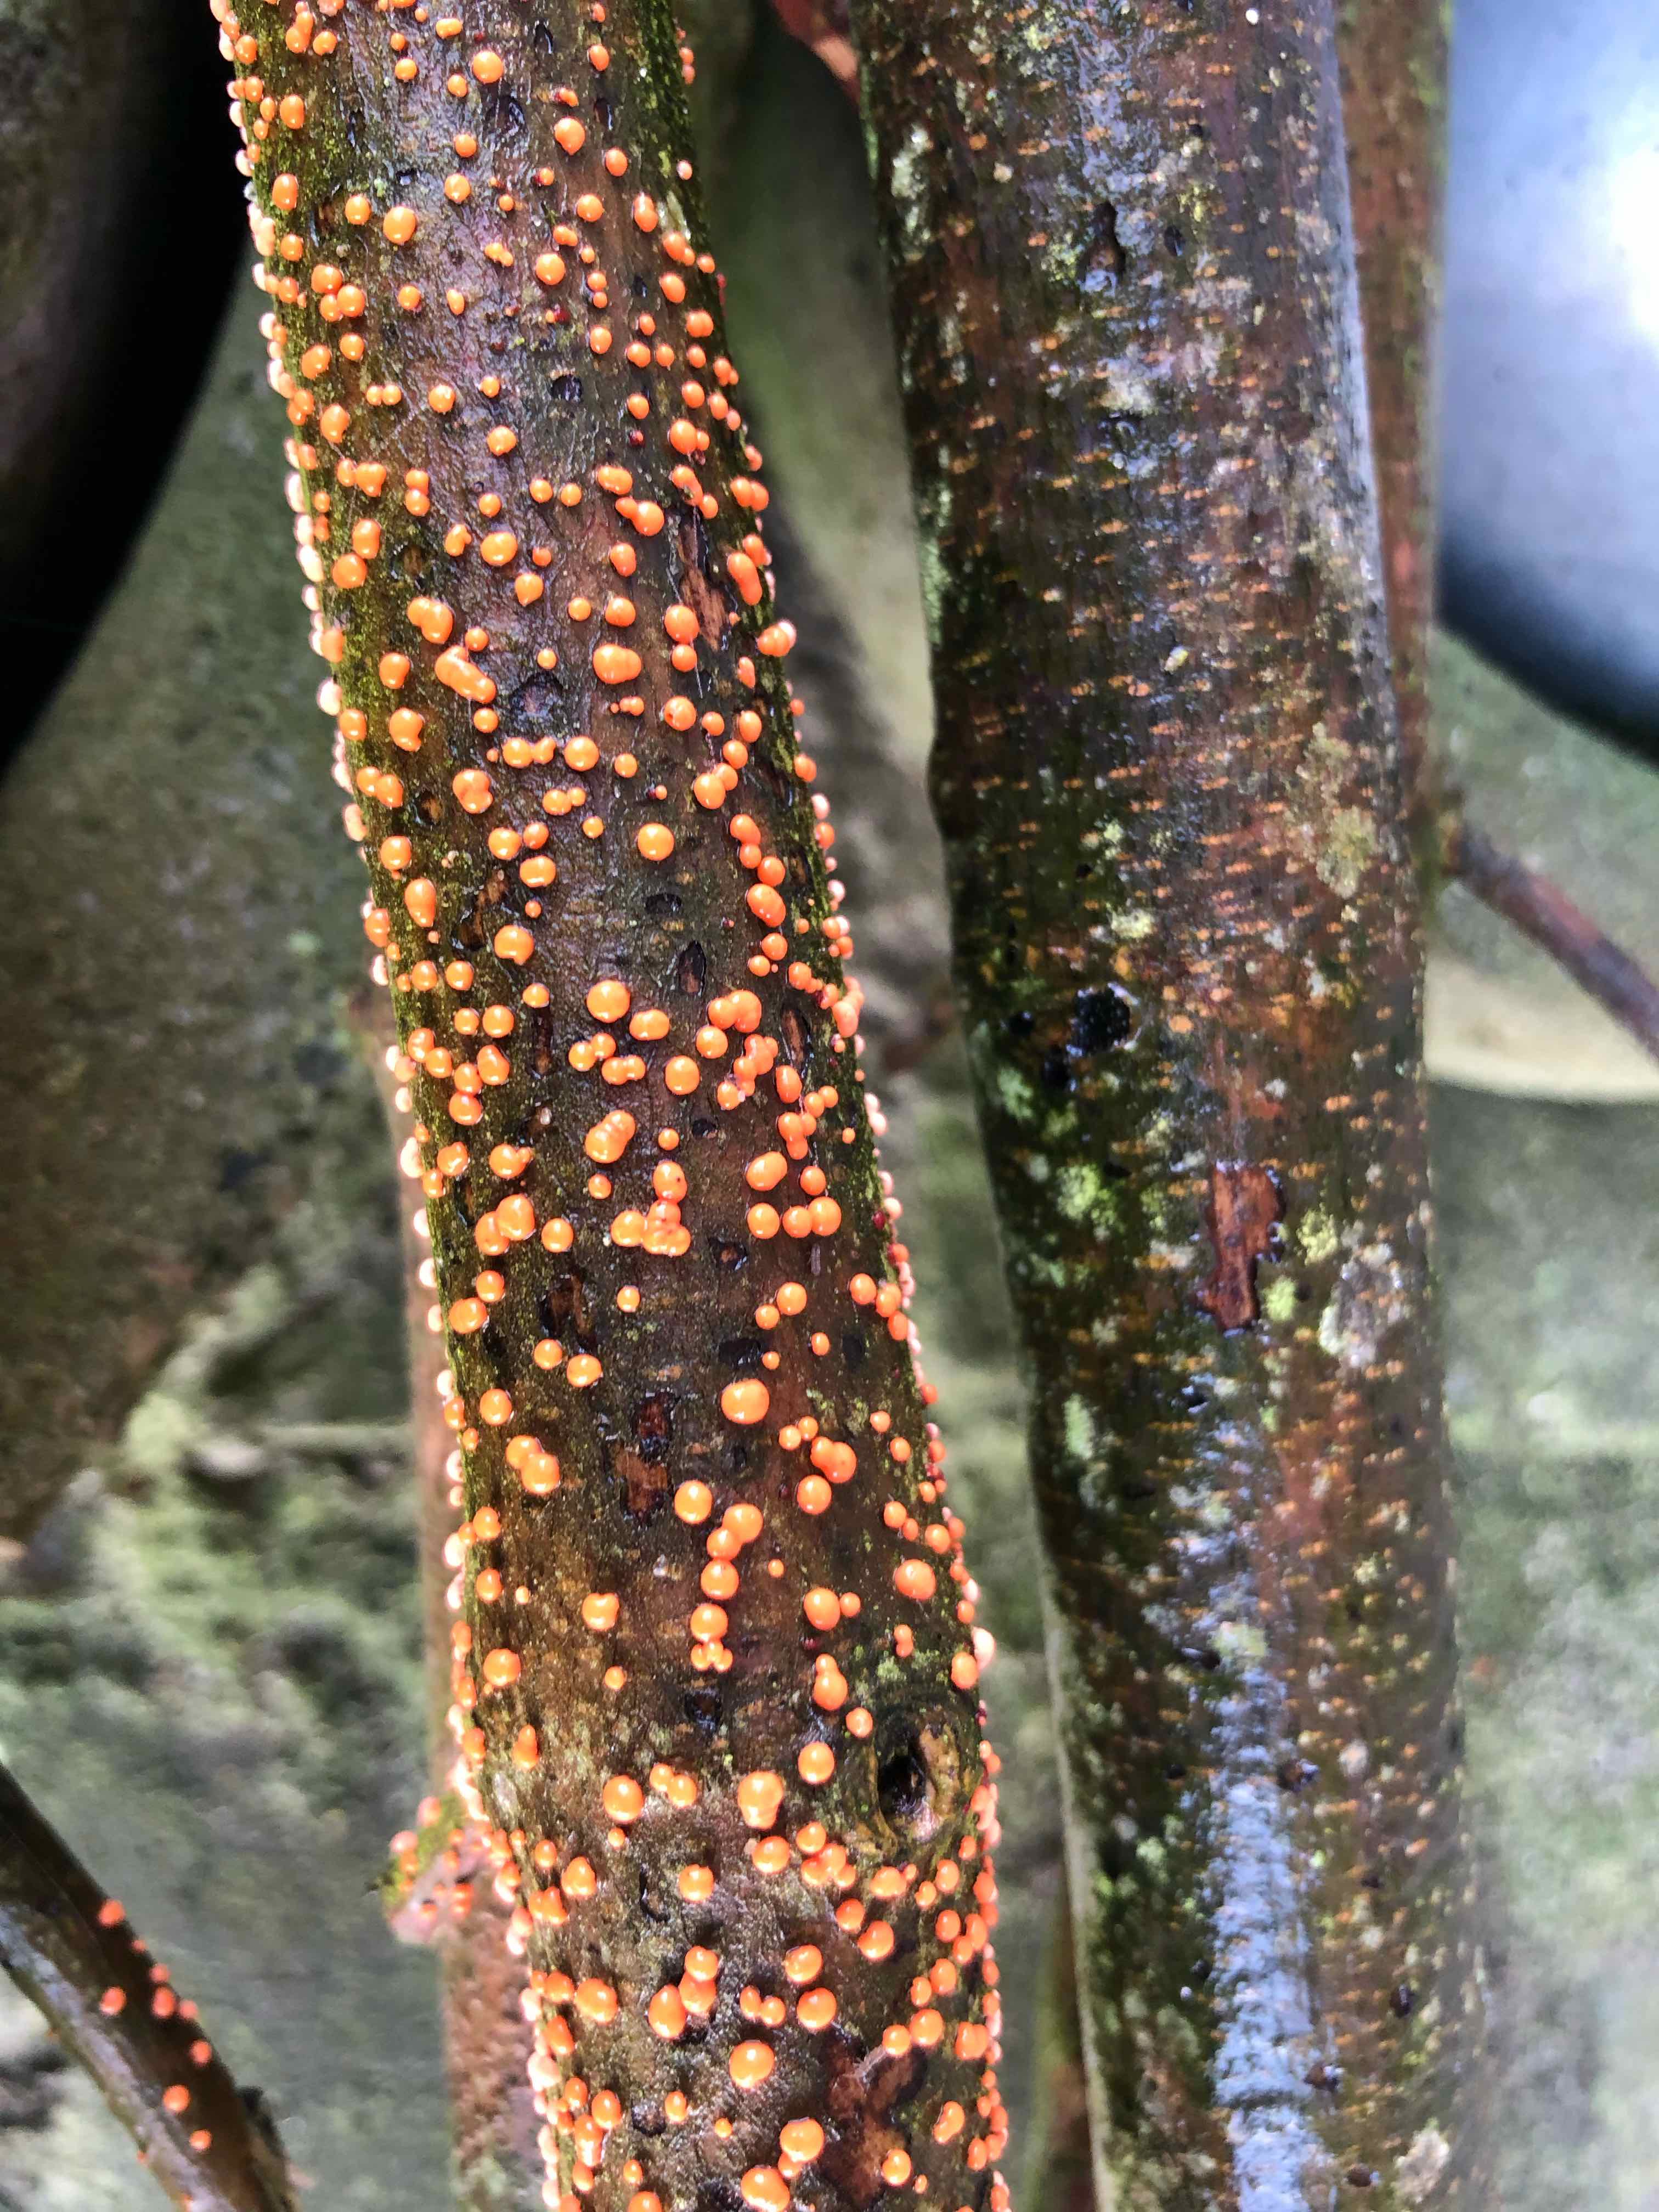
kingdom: Fungi
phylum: Ascomycota
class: Sordariomycetes
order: Hypocreales
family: Nectriaceae
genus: Nectria
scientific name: Nectria cinnabarina
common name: almindelig cinnobersvamp
